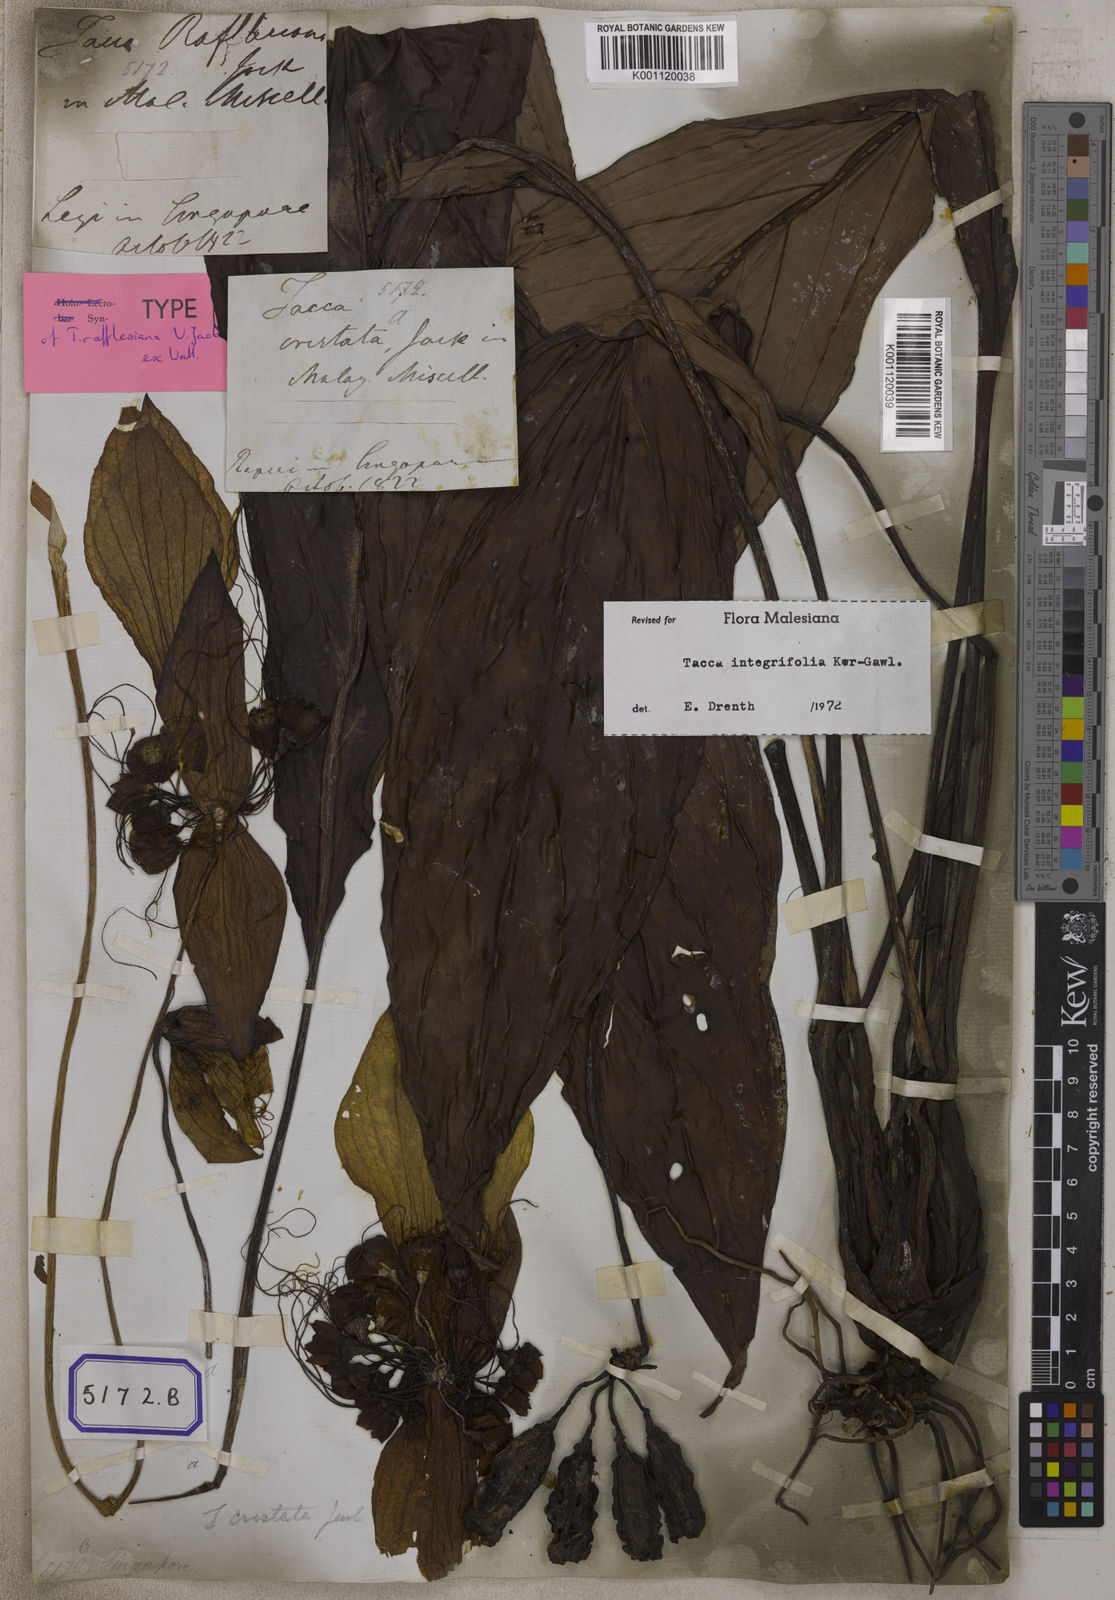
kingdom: Plantae
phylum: Tracheophyta
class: Liliopsida
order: Dioscoreales
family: Dioscoreaceae
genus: Tacca
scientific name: Tacca integrifolia
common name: Batplant
